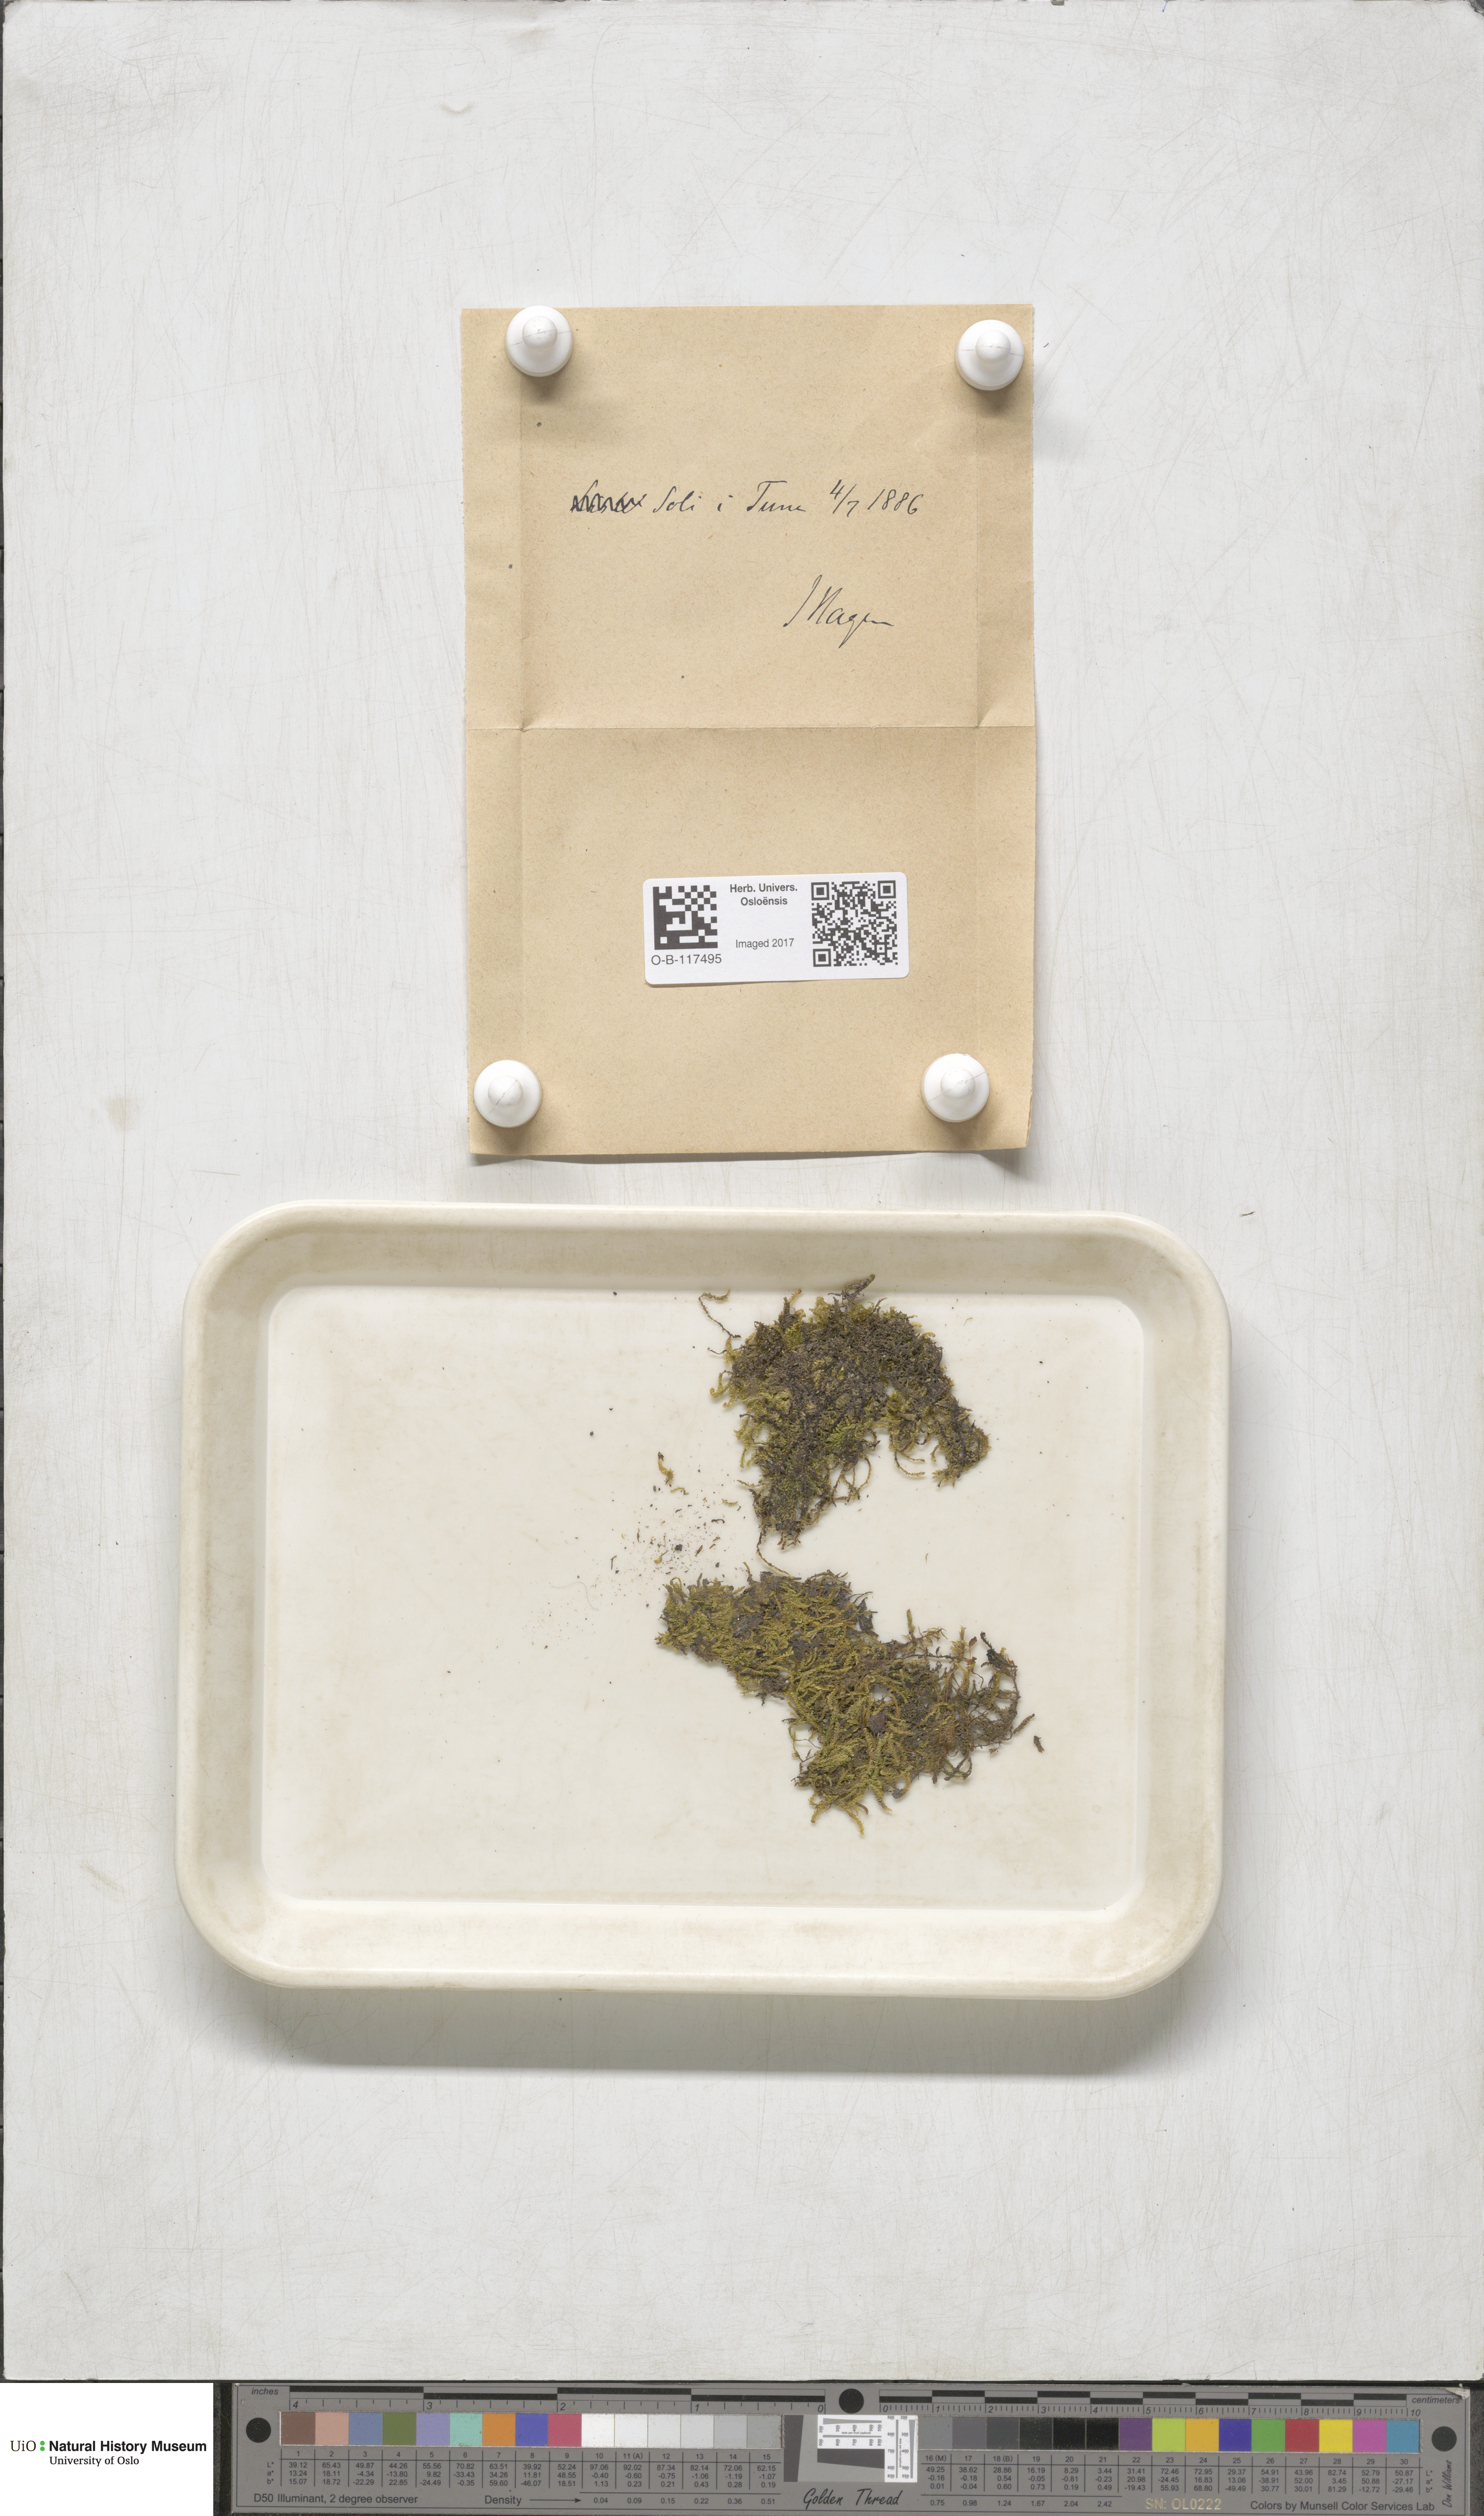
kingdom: Plantae
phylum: Bryophyta
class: Bryopsida
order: Hypnales
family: Amblystegiaceae
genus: Hygrohypnum
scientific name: Hygrohypnum luridum
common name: Drab brook moss
